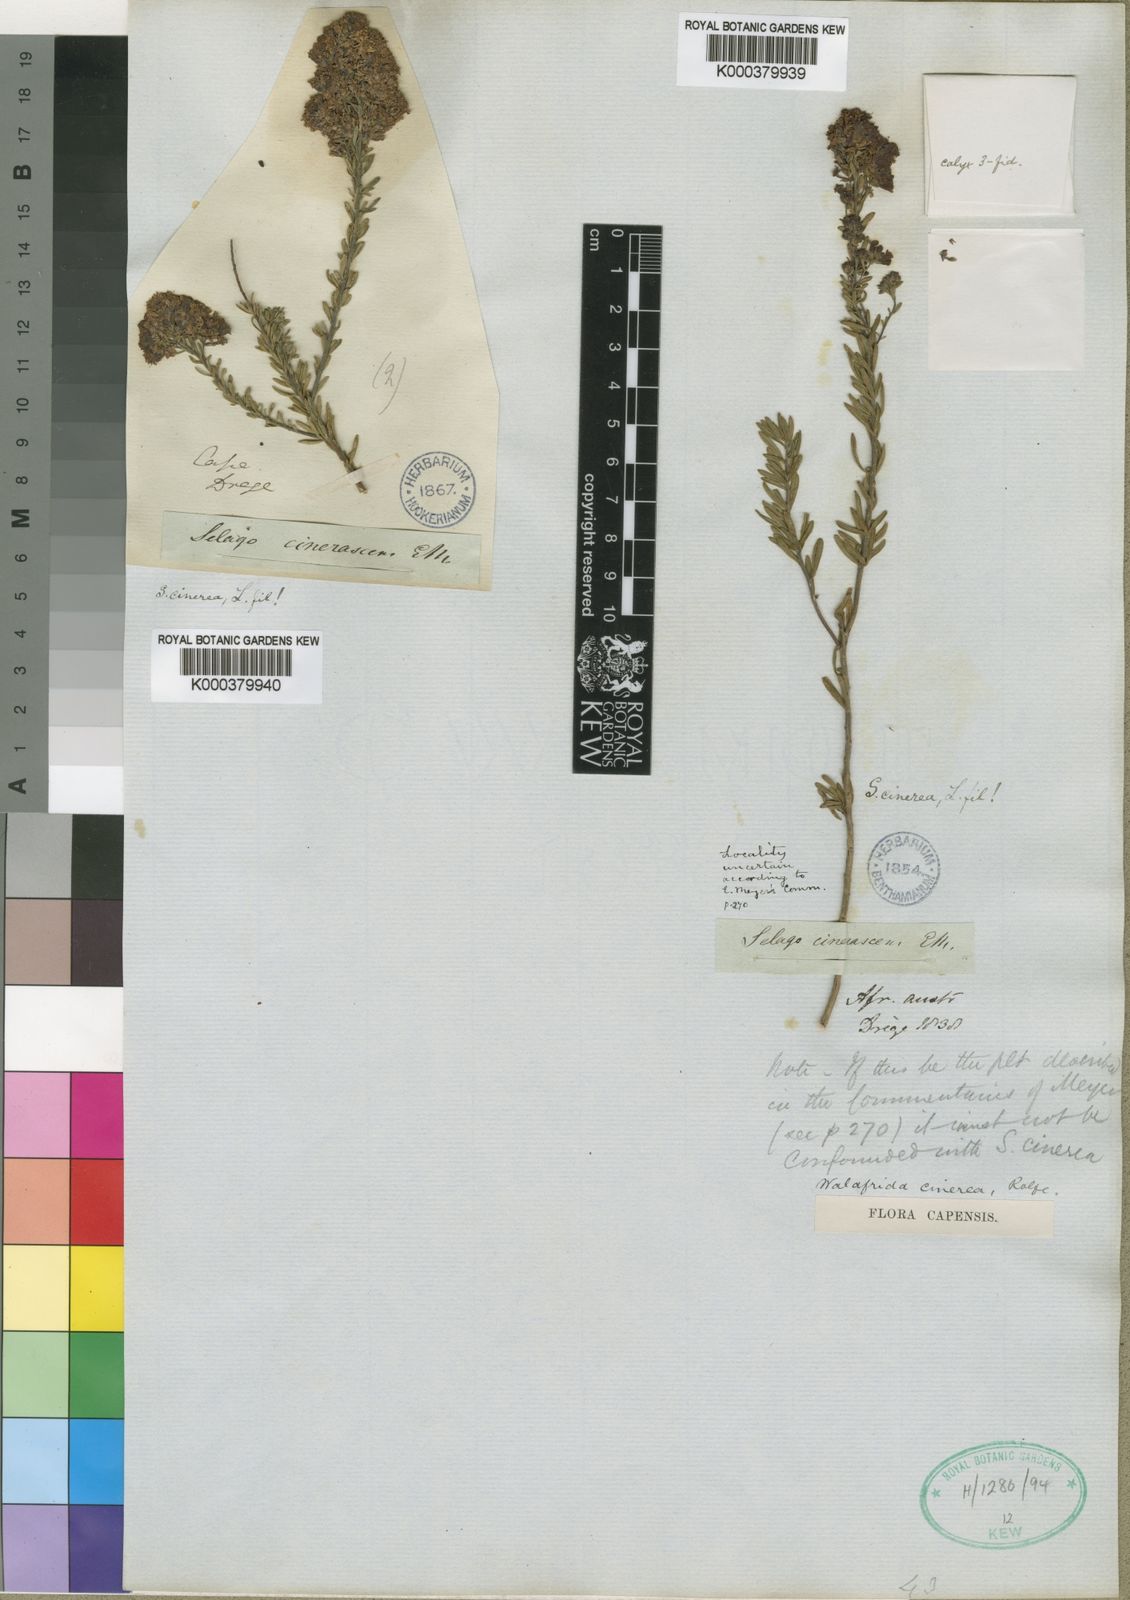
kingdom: Plantae
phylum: Tracheophyta
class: Magnoliopsida
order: Lamiales
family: Scrophulariaceae
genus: Selago
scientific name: Selago
